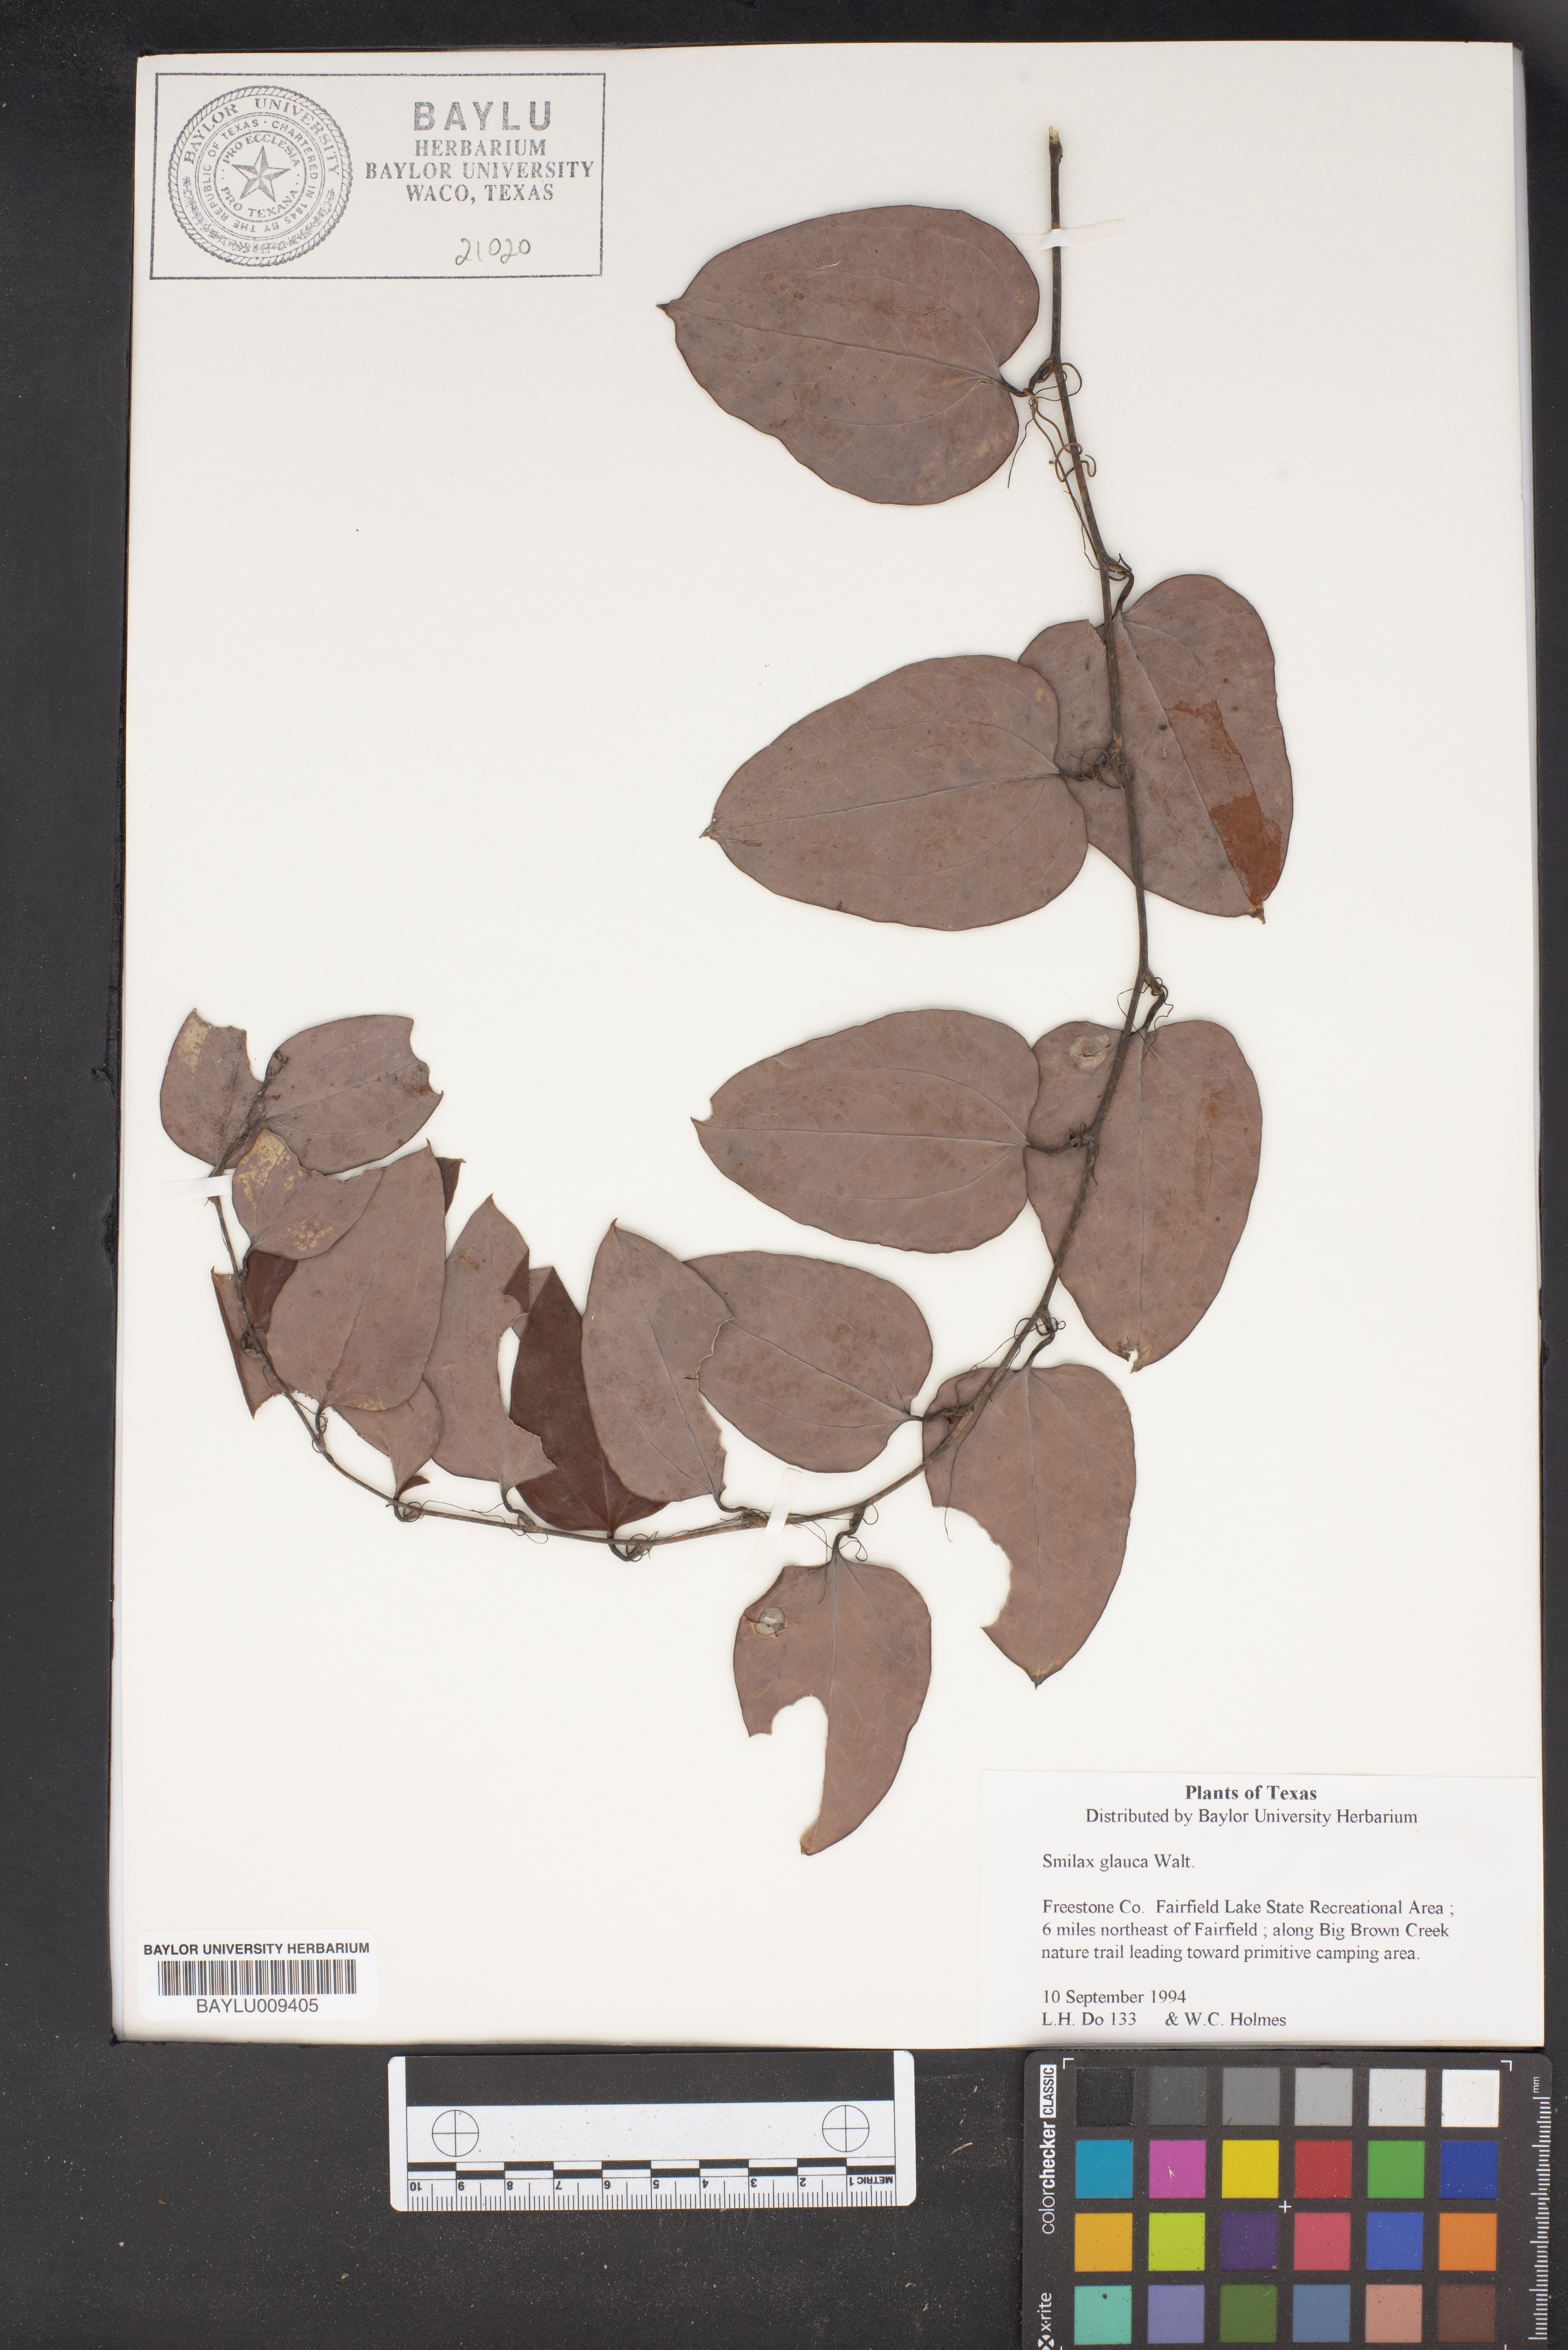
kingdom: Plantae
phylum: Tracheophyta
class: Liliopsida
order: Liliales
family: Smilacaceae
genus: Smilax
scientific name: Smilax glauca
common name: Cat greenbrier
